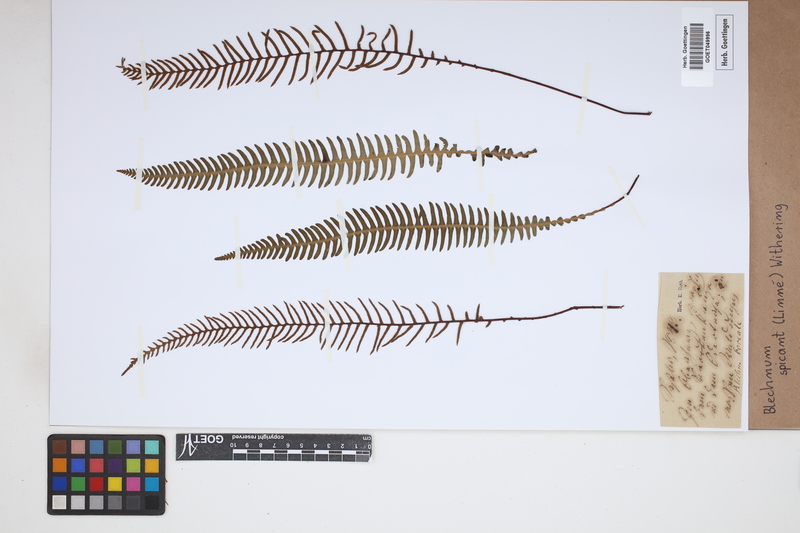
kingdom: Plantae
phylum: Tracheophyta
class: Polypodiopsida
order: Polypodiales
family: Blechnaceae
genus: Struthiopteris
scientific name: Struthiopteris spicant
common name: Deer fern
